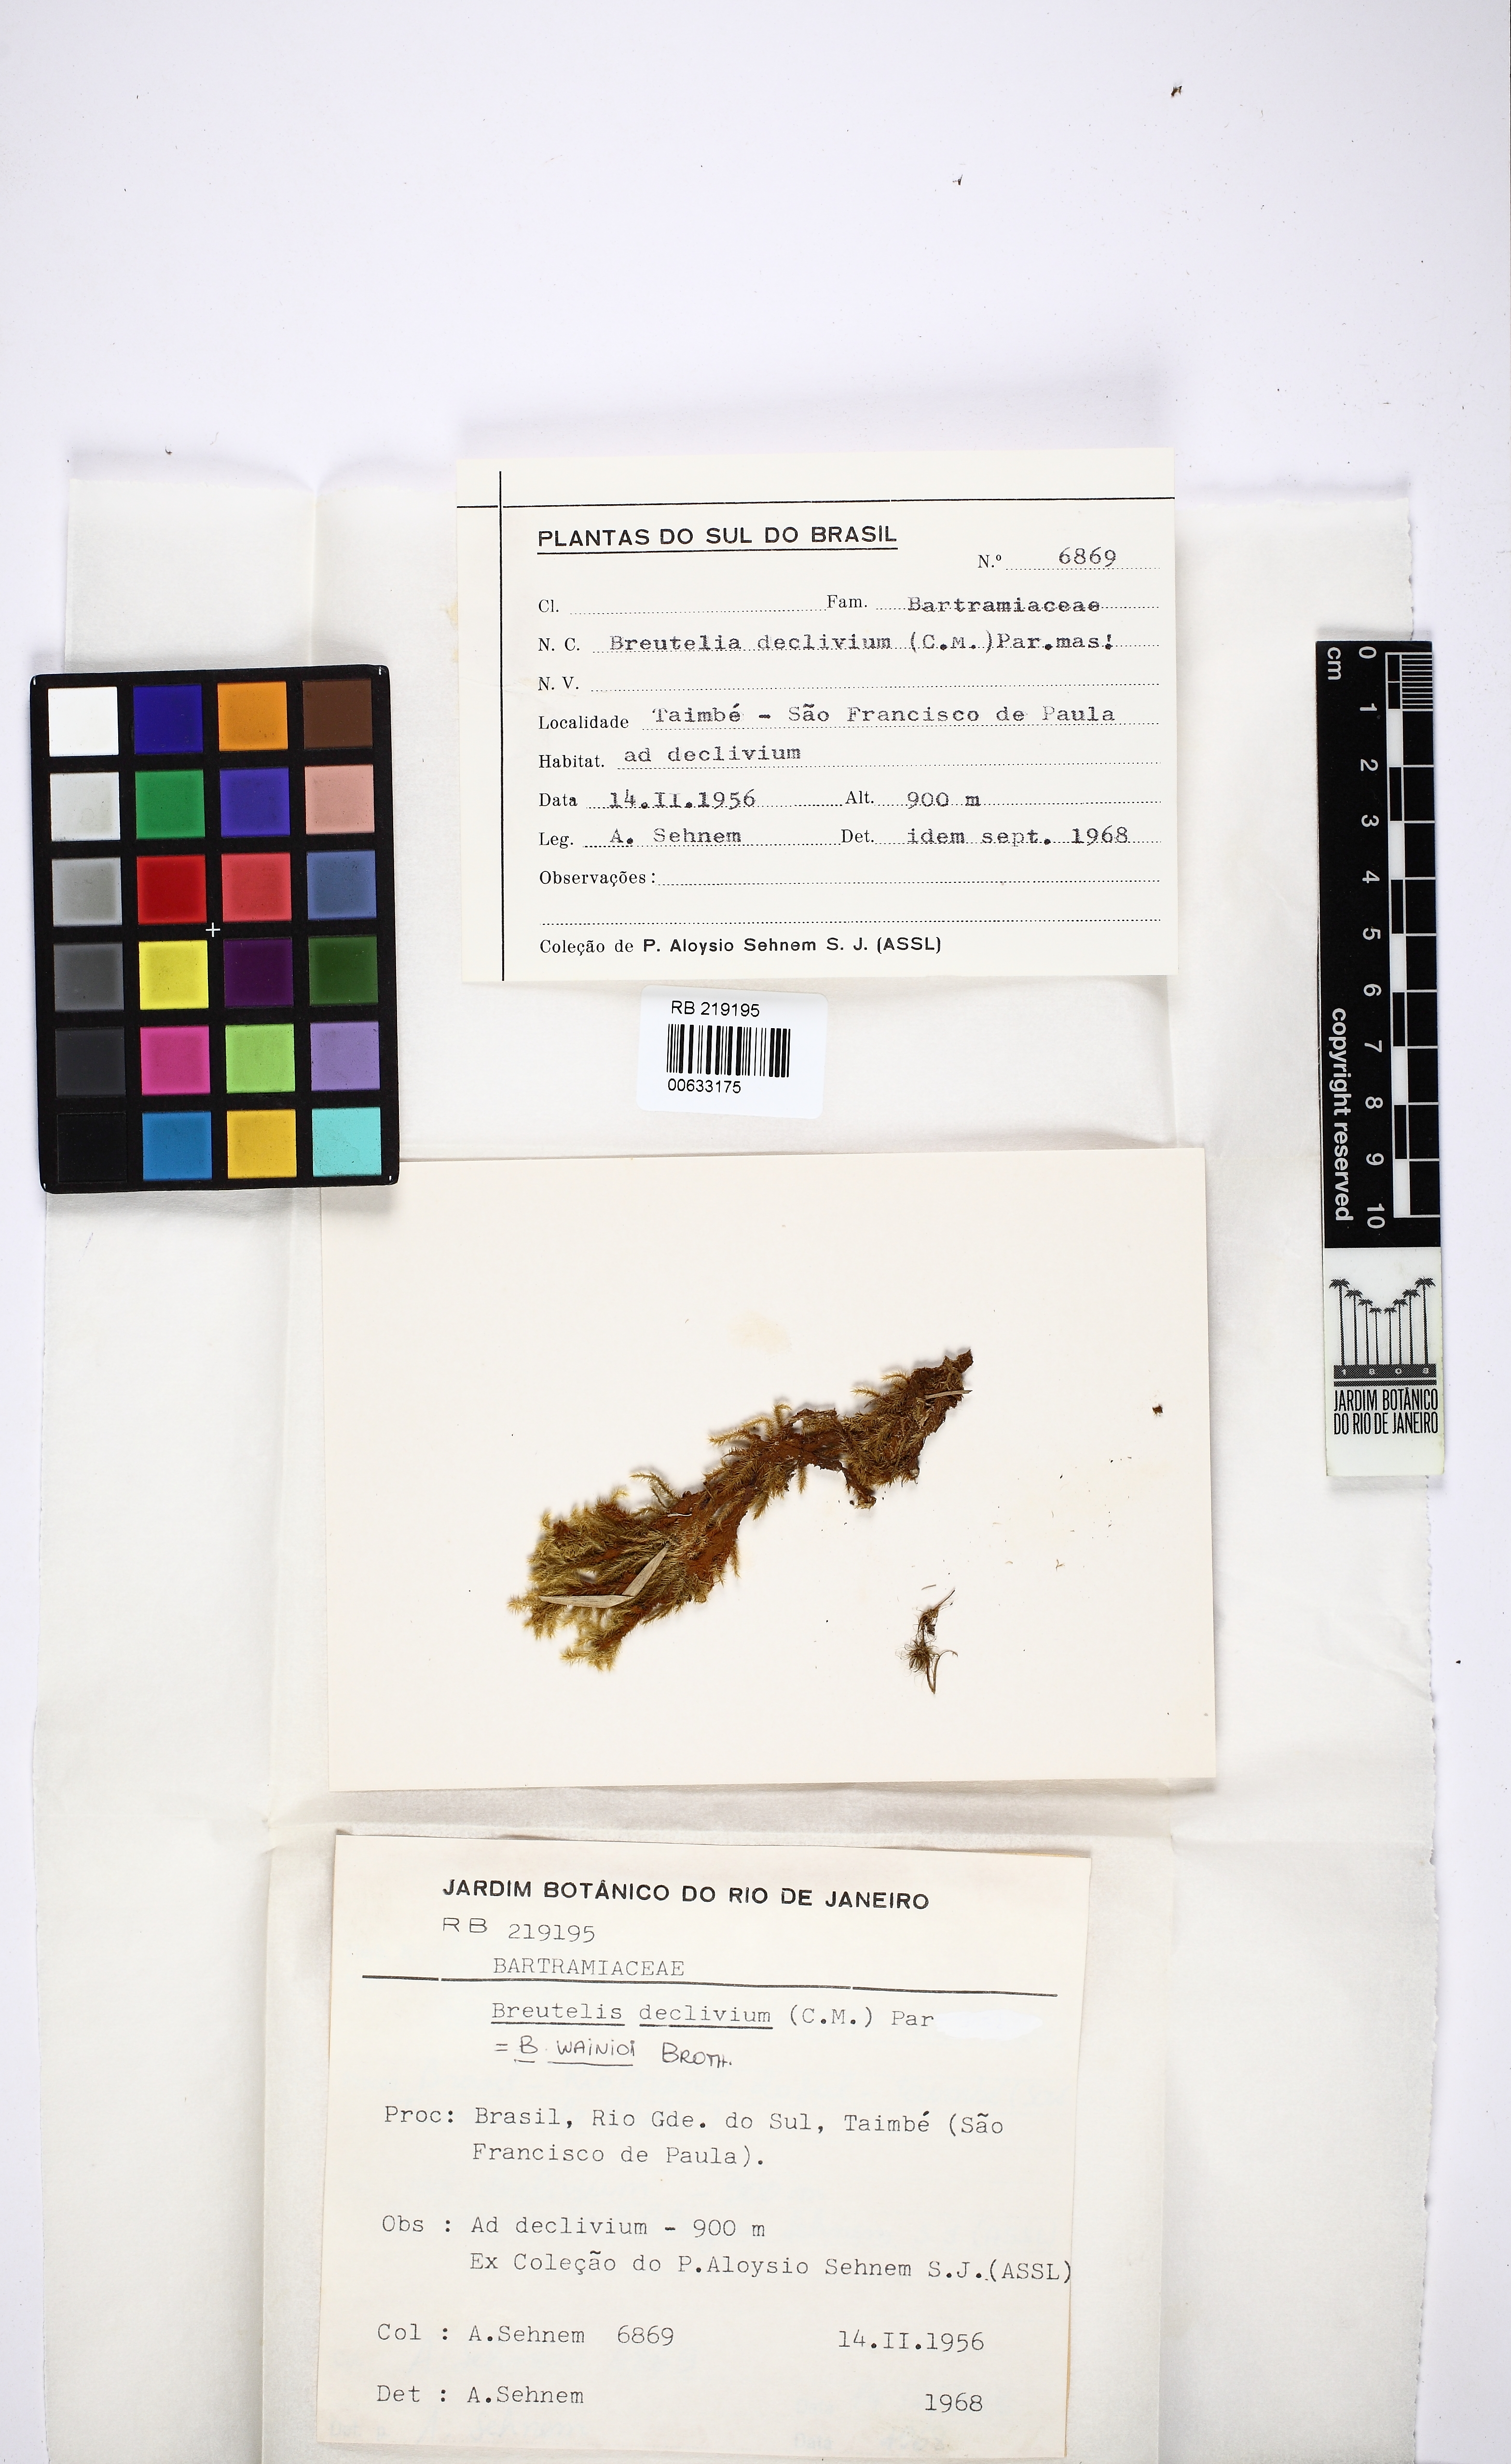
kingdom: Plantae
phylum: Bryophyta
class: Bryopsida
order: Bartramiales
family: Bartramiaceae
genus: Breutelia
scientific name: Breutelia wainioi
